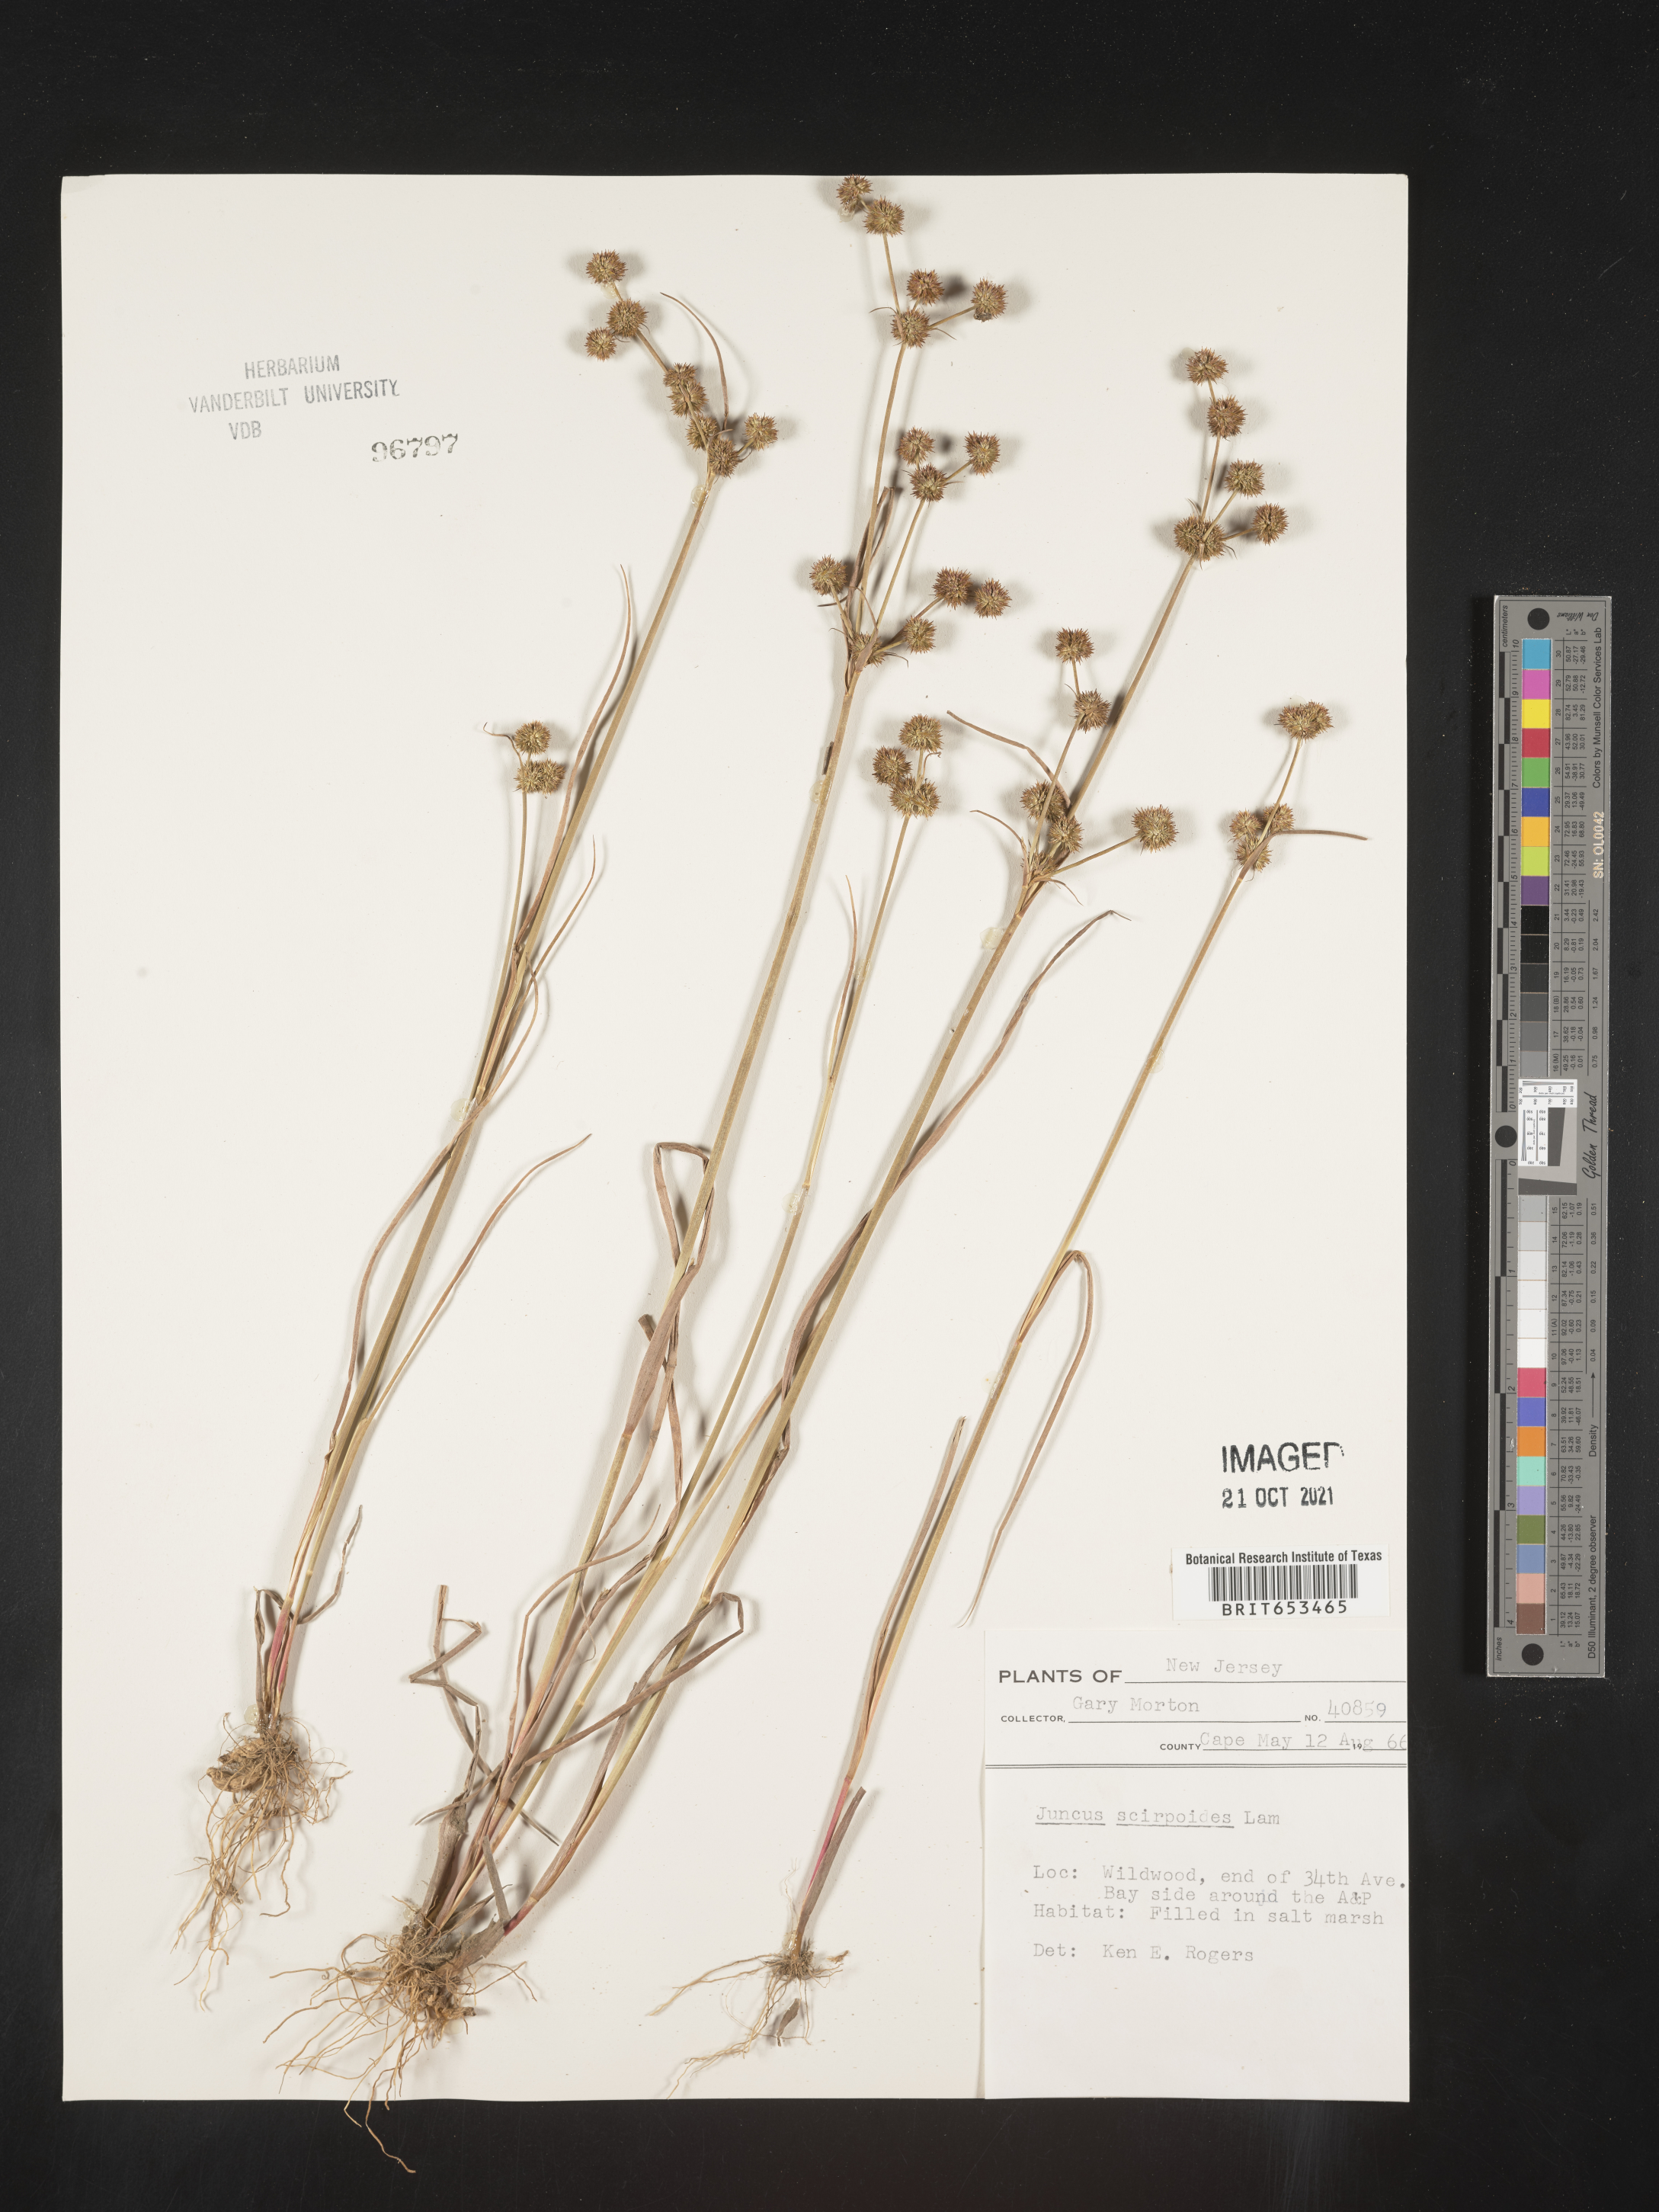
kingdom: Plantae
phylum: Tracheophyta
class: Liliopsida
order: Poales
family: Juncaceae
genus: Juncus
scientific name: Juncus scirpoides
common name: Needlepod rush
